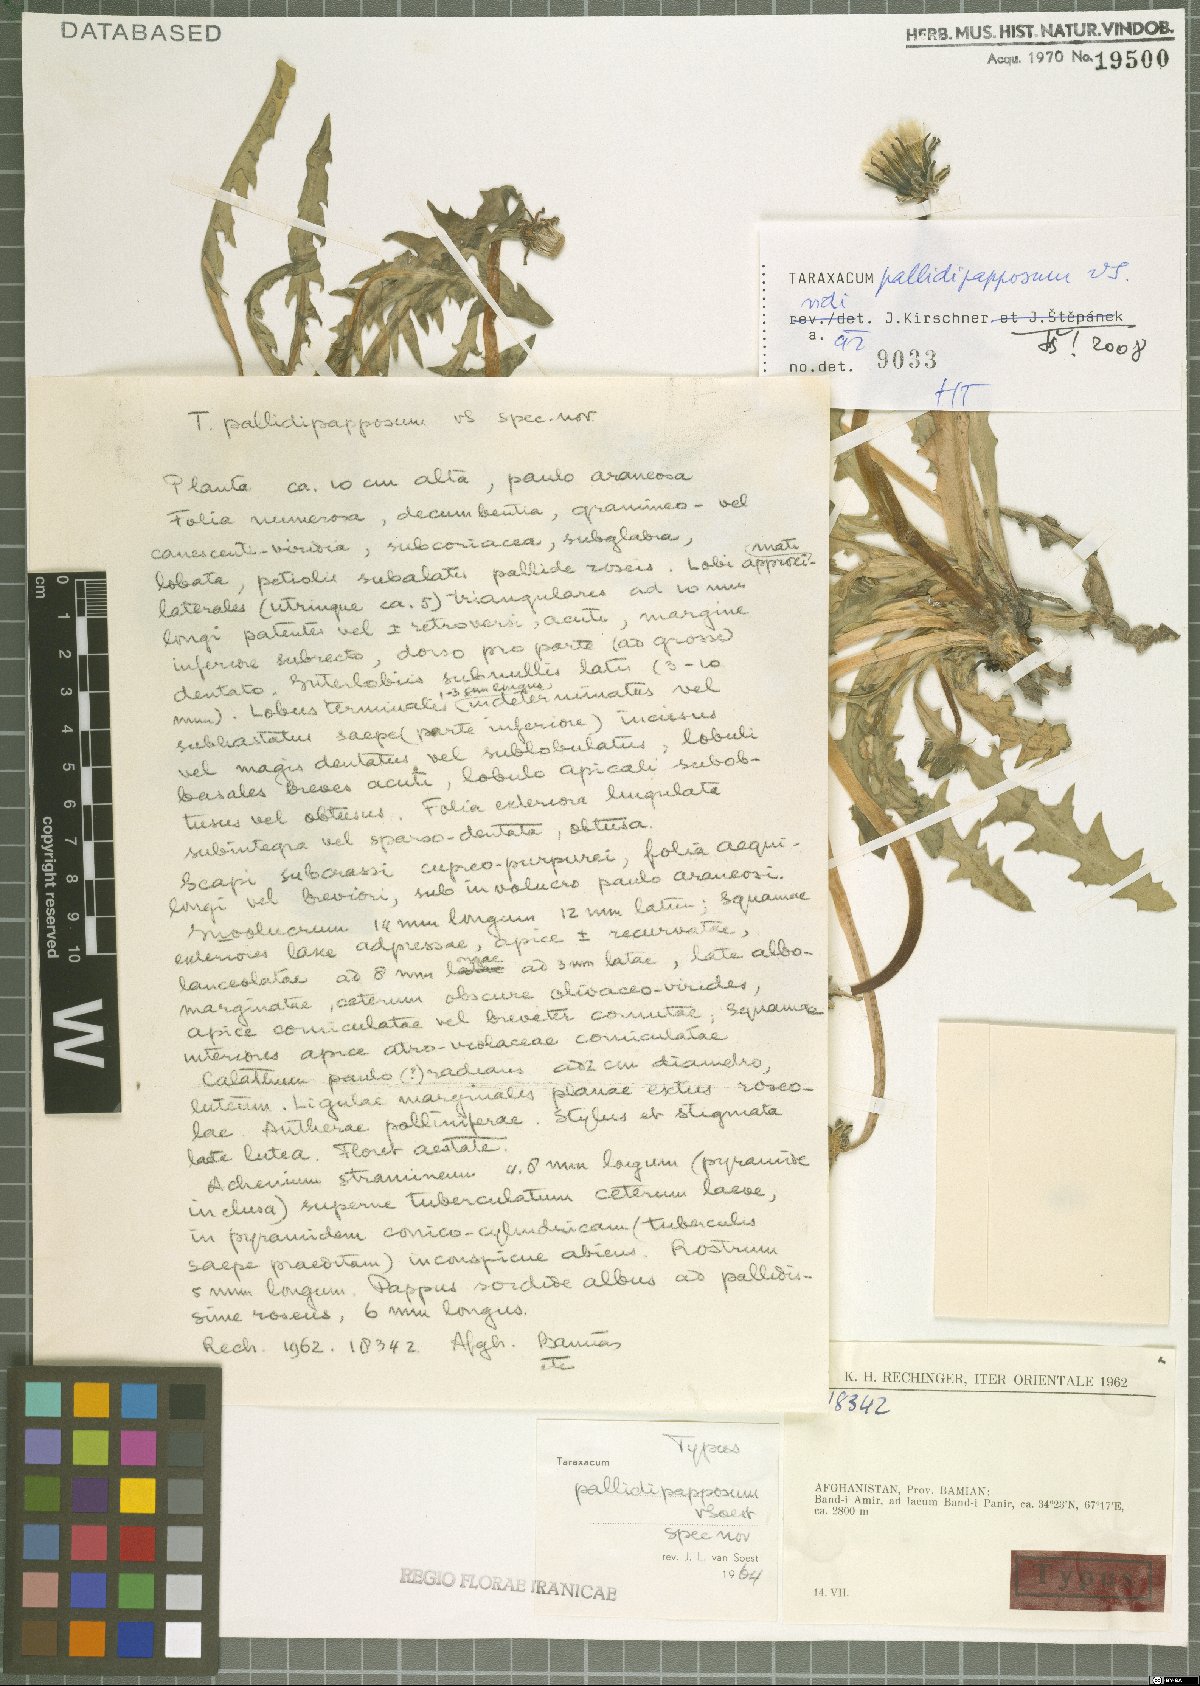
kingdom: Plantae
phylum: Tracheophyta
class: Magnoliopsida
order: Asterales
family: Asteraceae
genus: Taraxacum
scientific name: Taraxacum pallidipapposum
